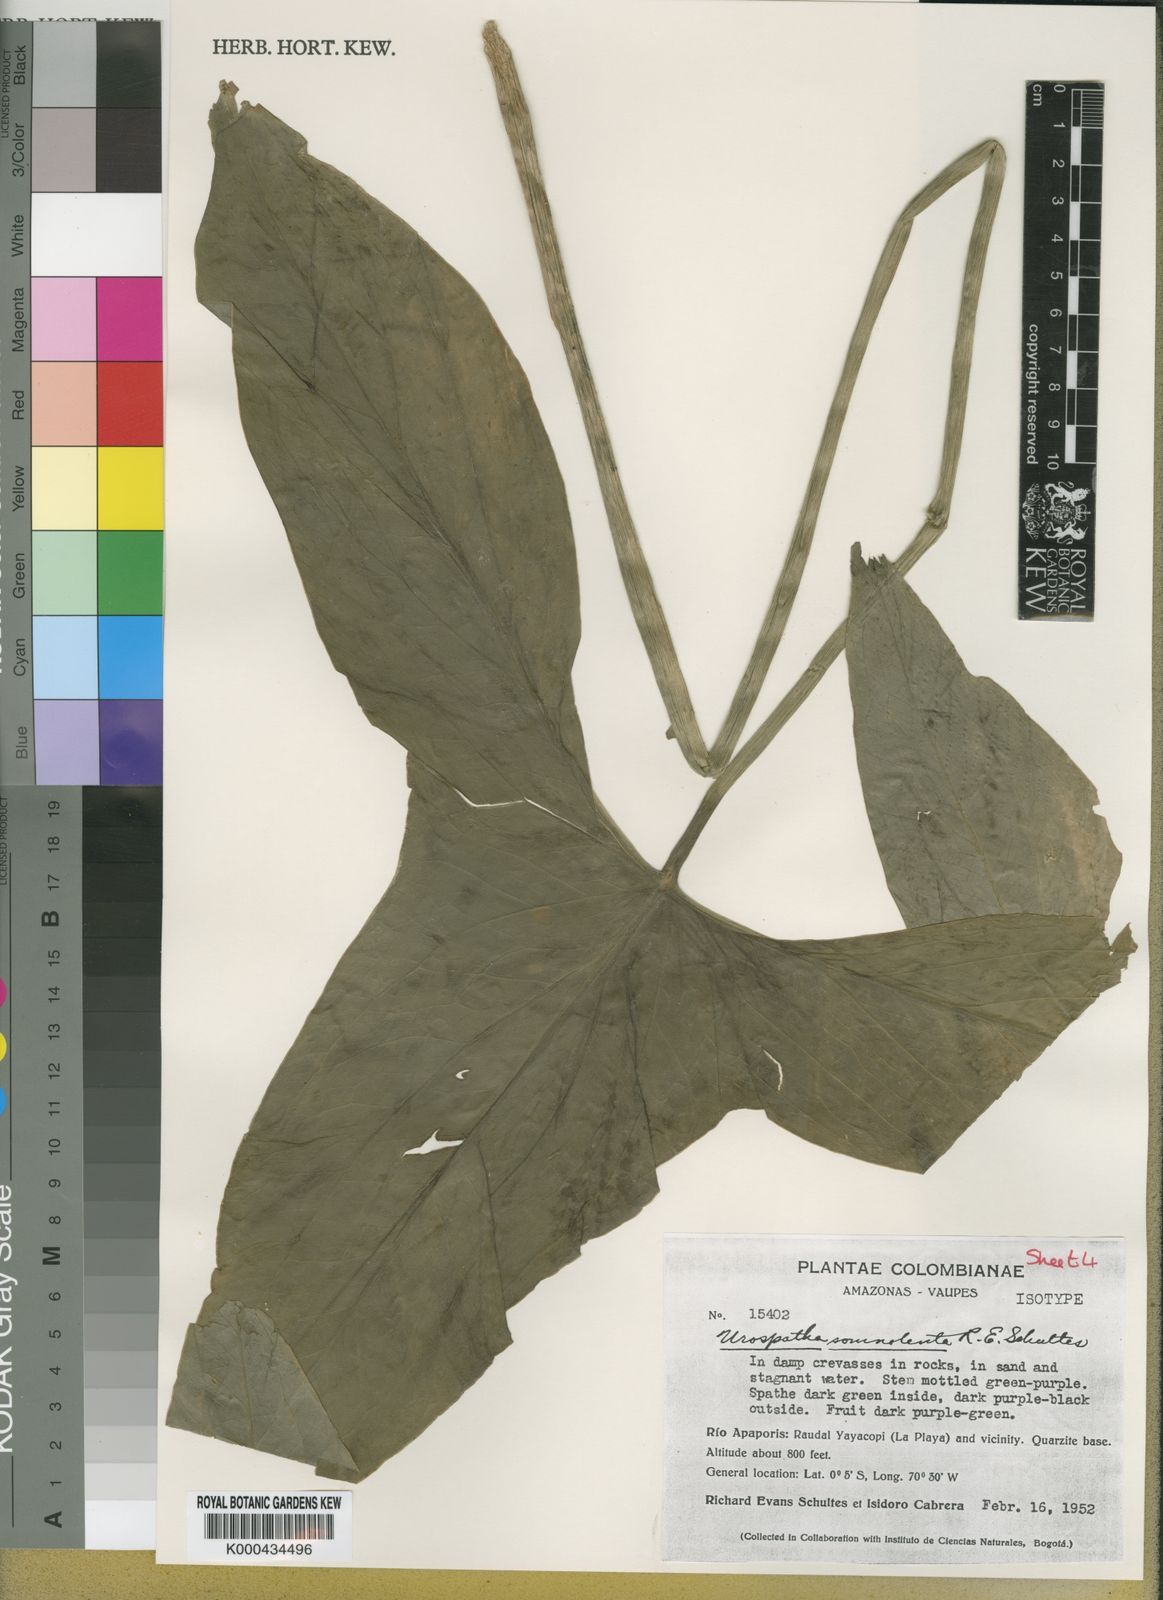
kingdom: Plantae
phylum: Tracheophyta
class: Liliopsida
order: Alismatales
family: Araceae
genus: Urospatha
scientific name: Urospatha somnolenta
